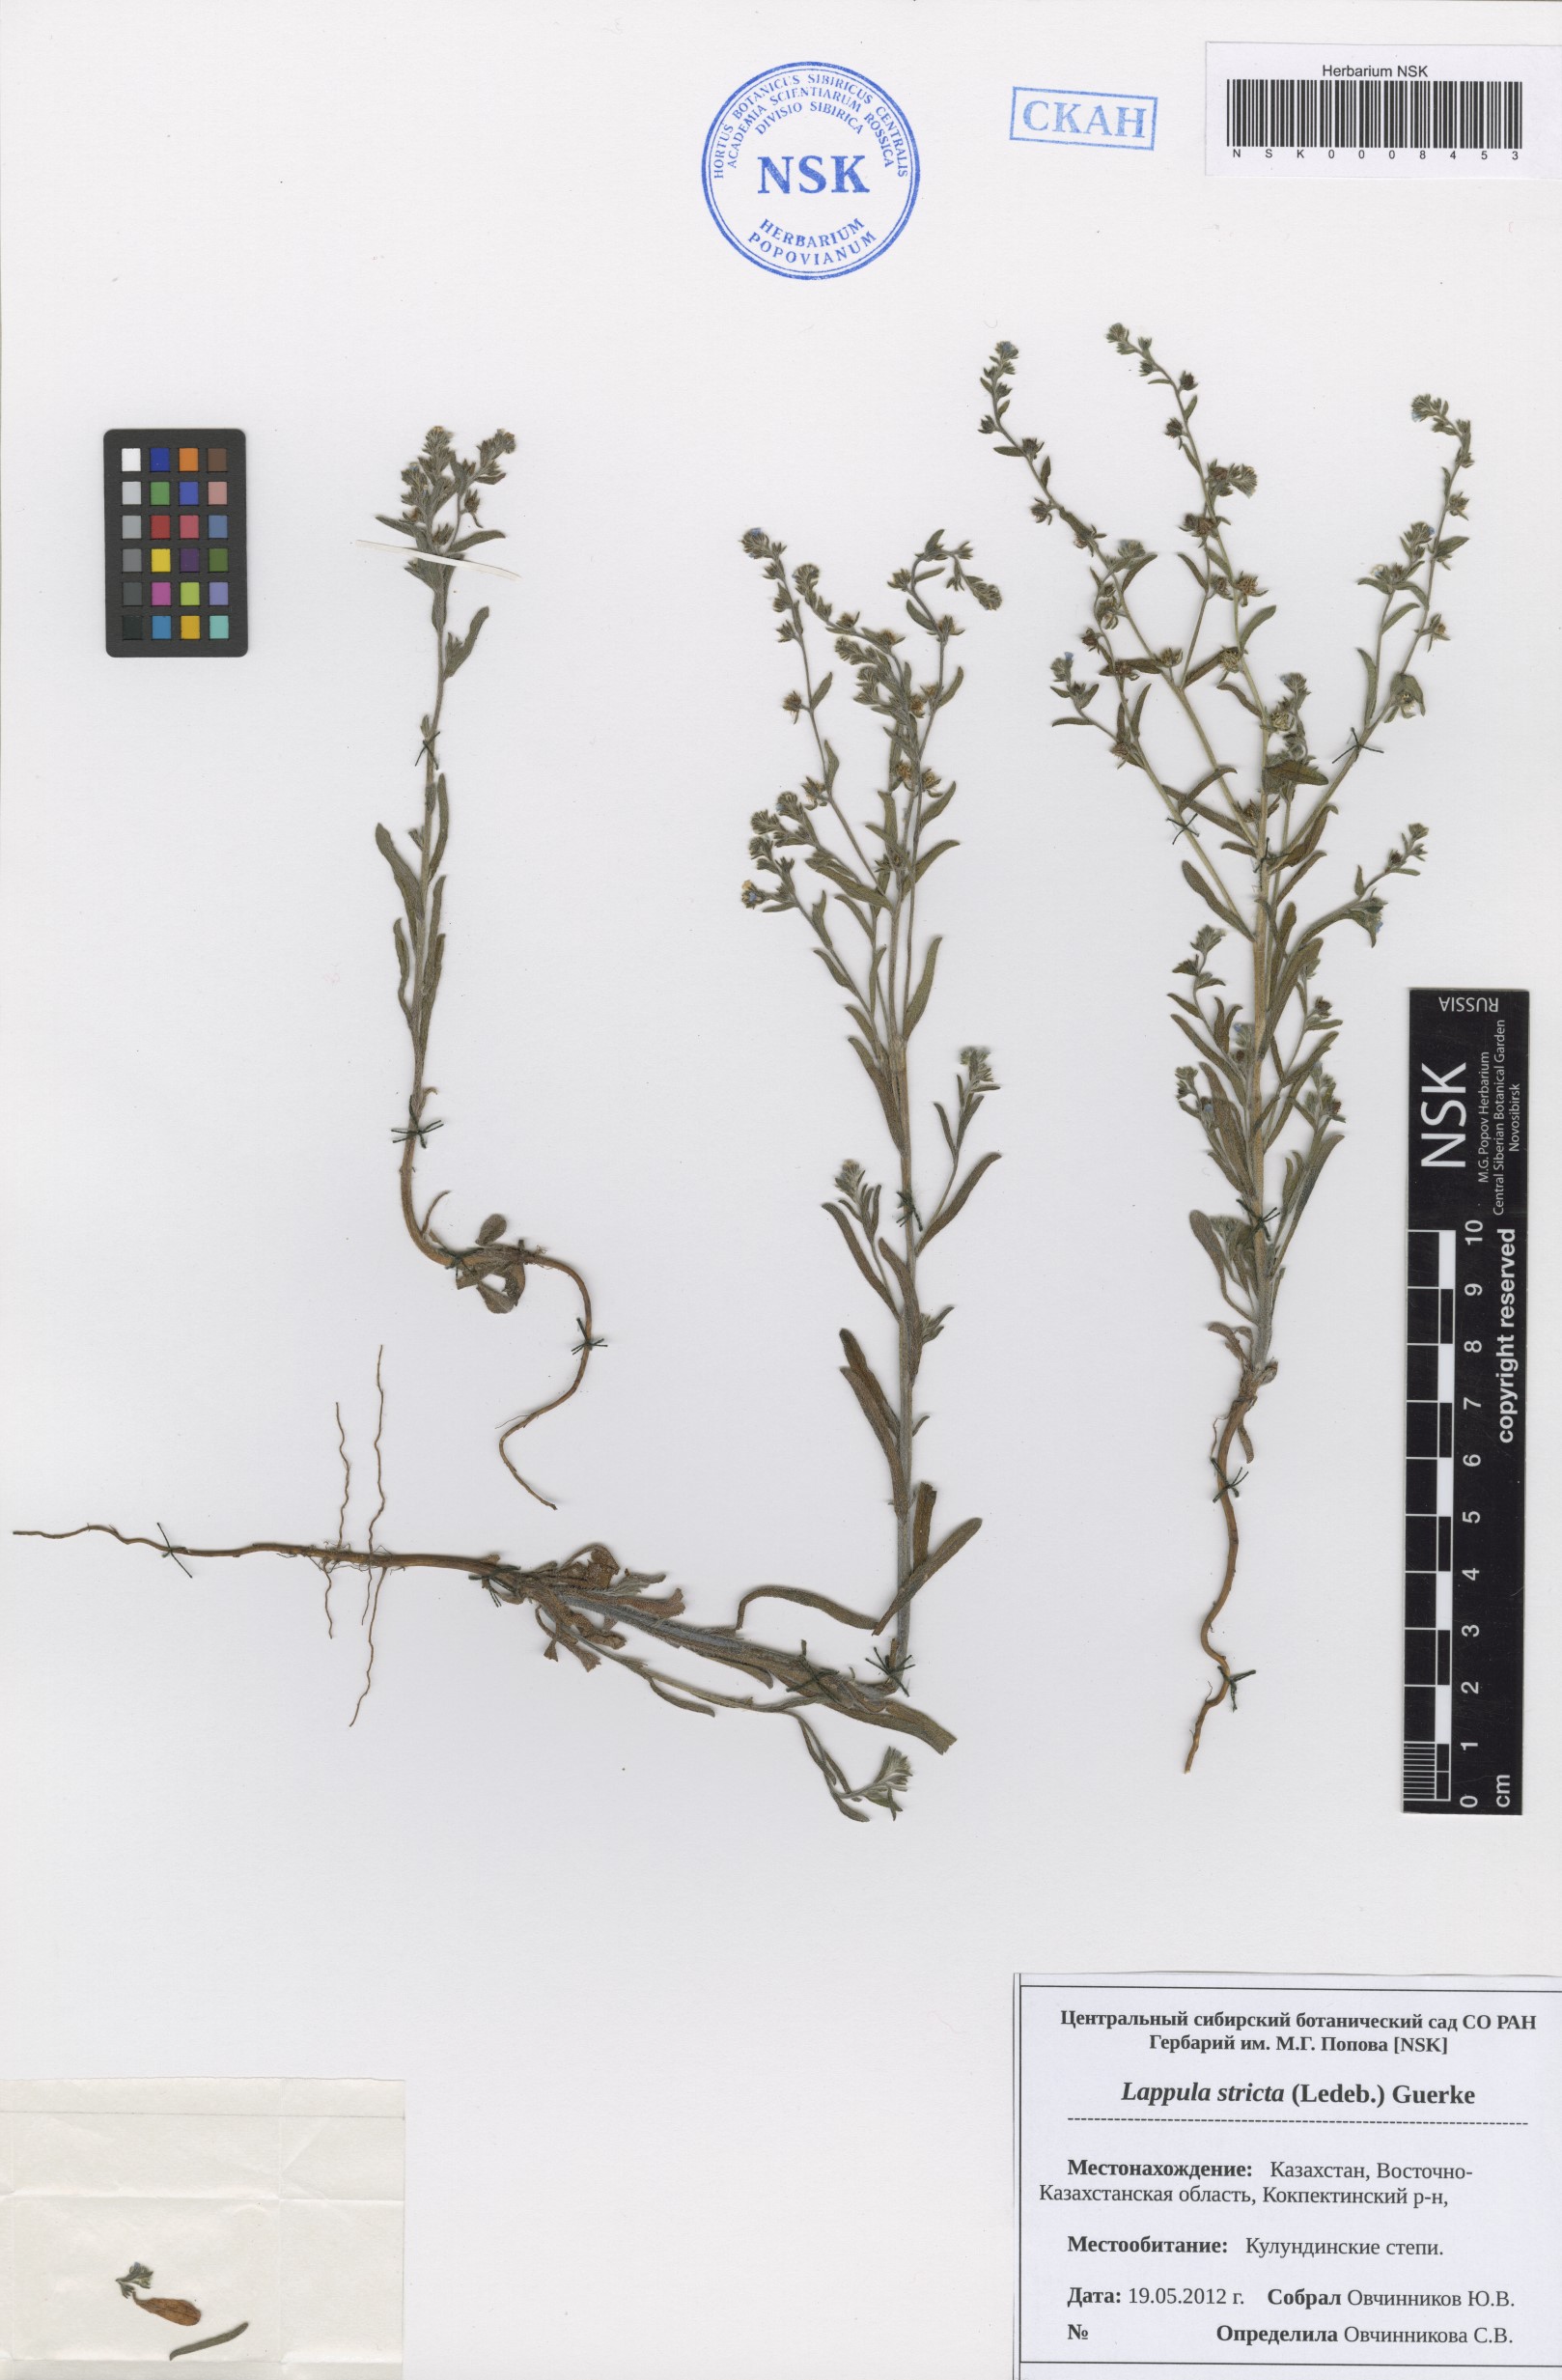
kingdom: Plantae
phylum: Tracheophyta
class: Magnoliopsida
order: Boraginales
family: Boraginaceae
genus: Lappula
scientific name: Lappula stricta
